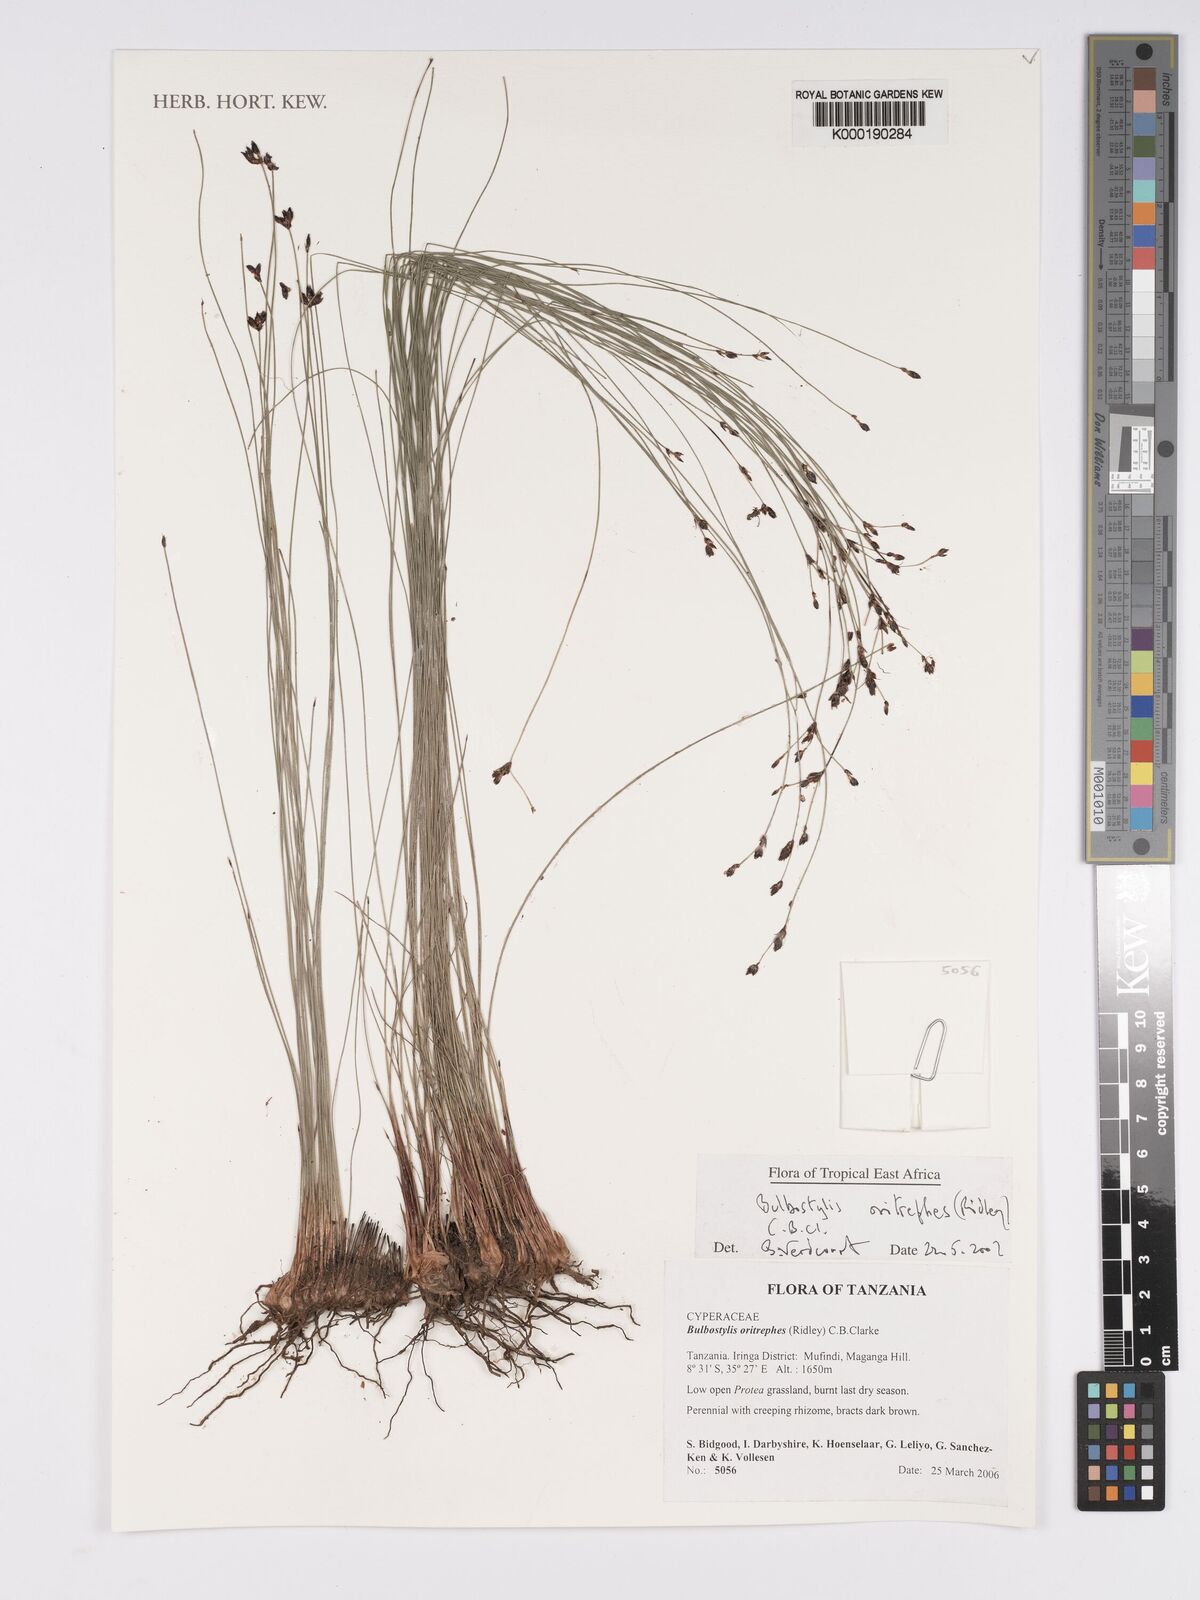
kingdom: Plantae
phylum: Tracheophyta
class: Liliopsida
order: Poales
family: Cyperaceae
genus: Bulbostylis
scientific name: Bulbostylis oritrephes
